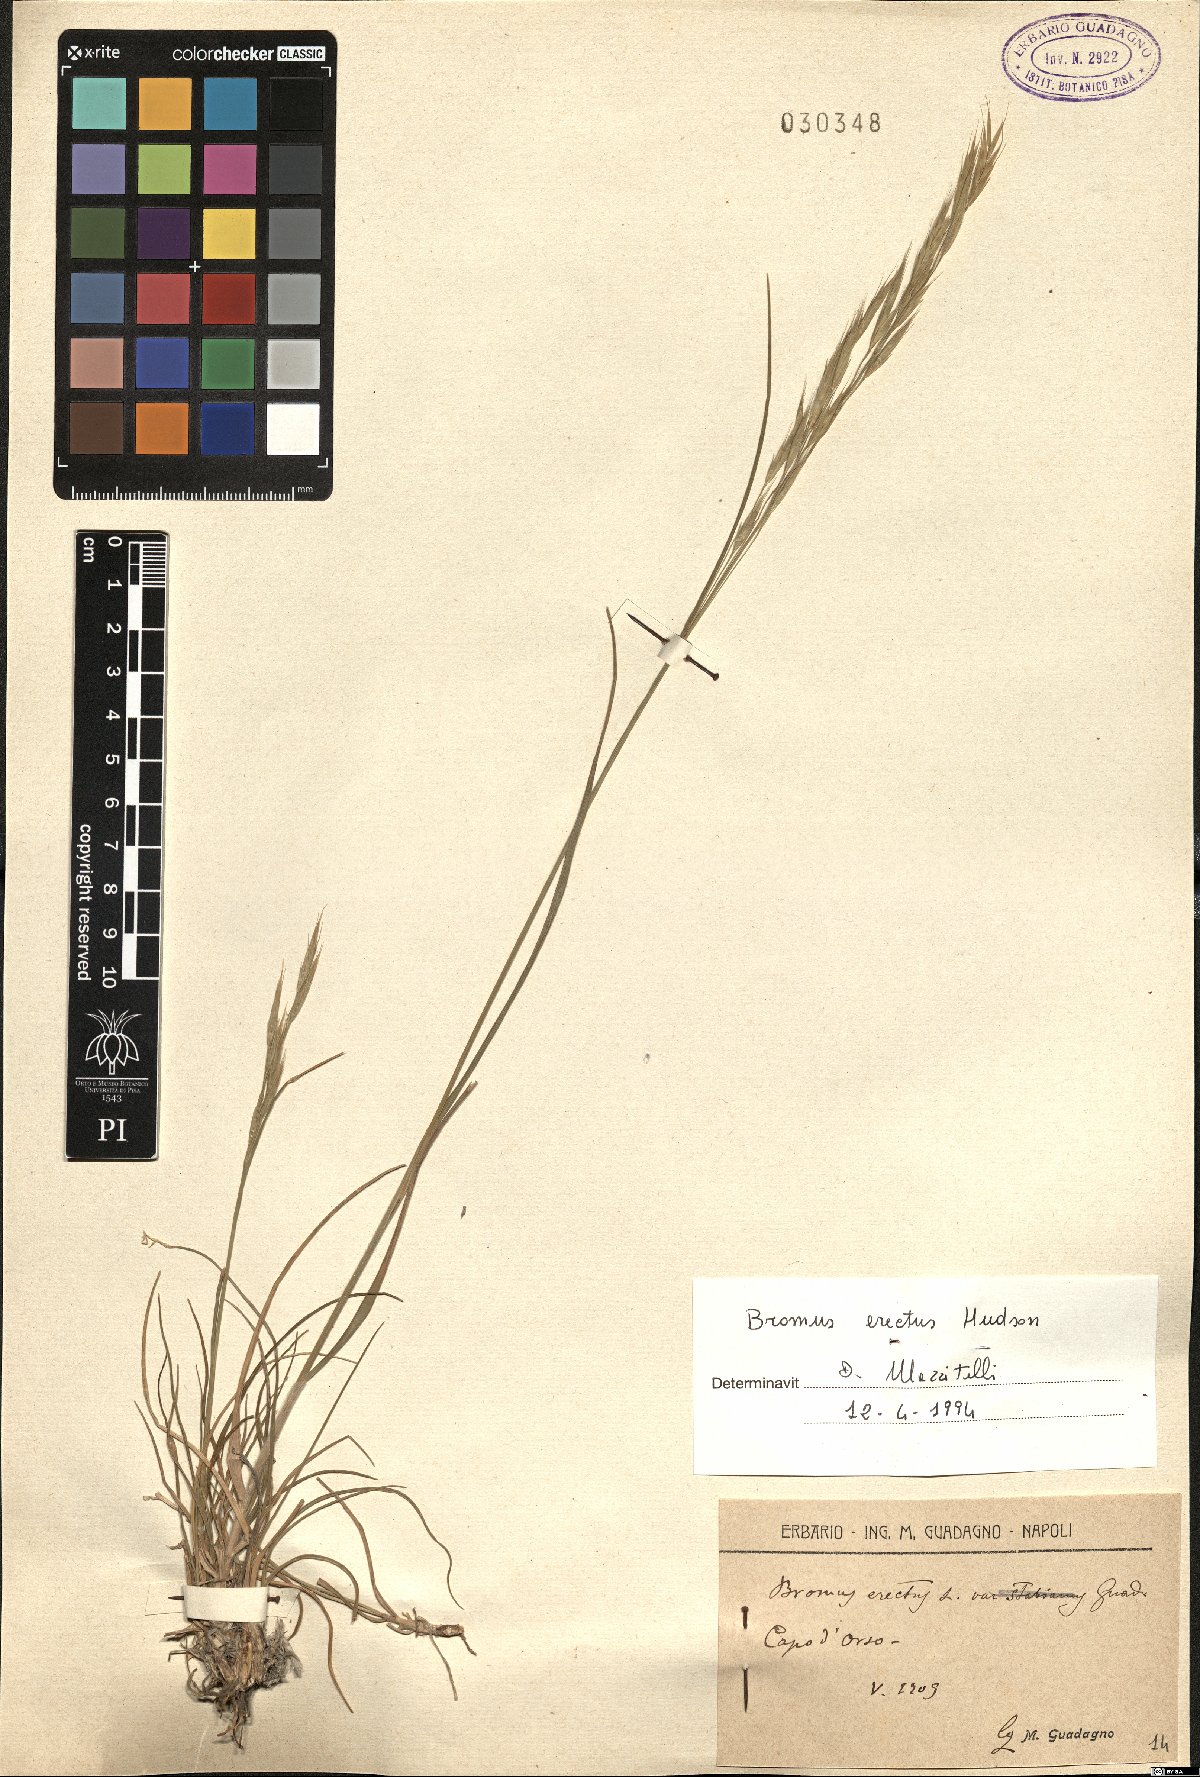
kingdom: Plantae
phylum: Tracheophyta
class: Liliopsida
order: Poales
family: Poaceae
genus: Bromus
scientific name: Bromus erectus
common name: Erect brome
